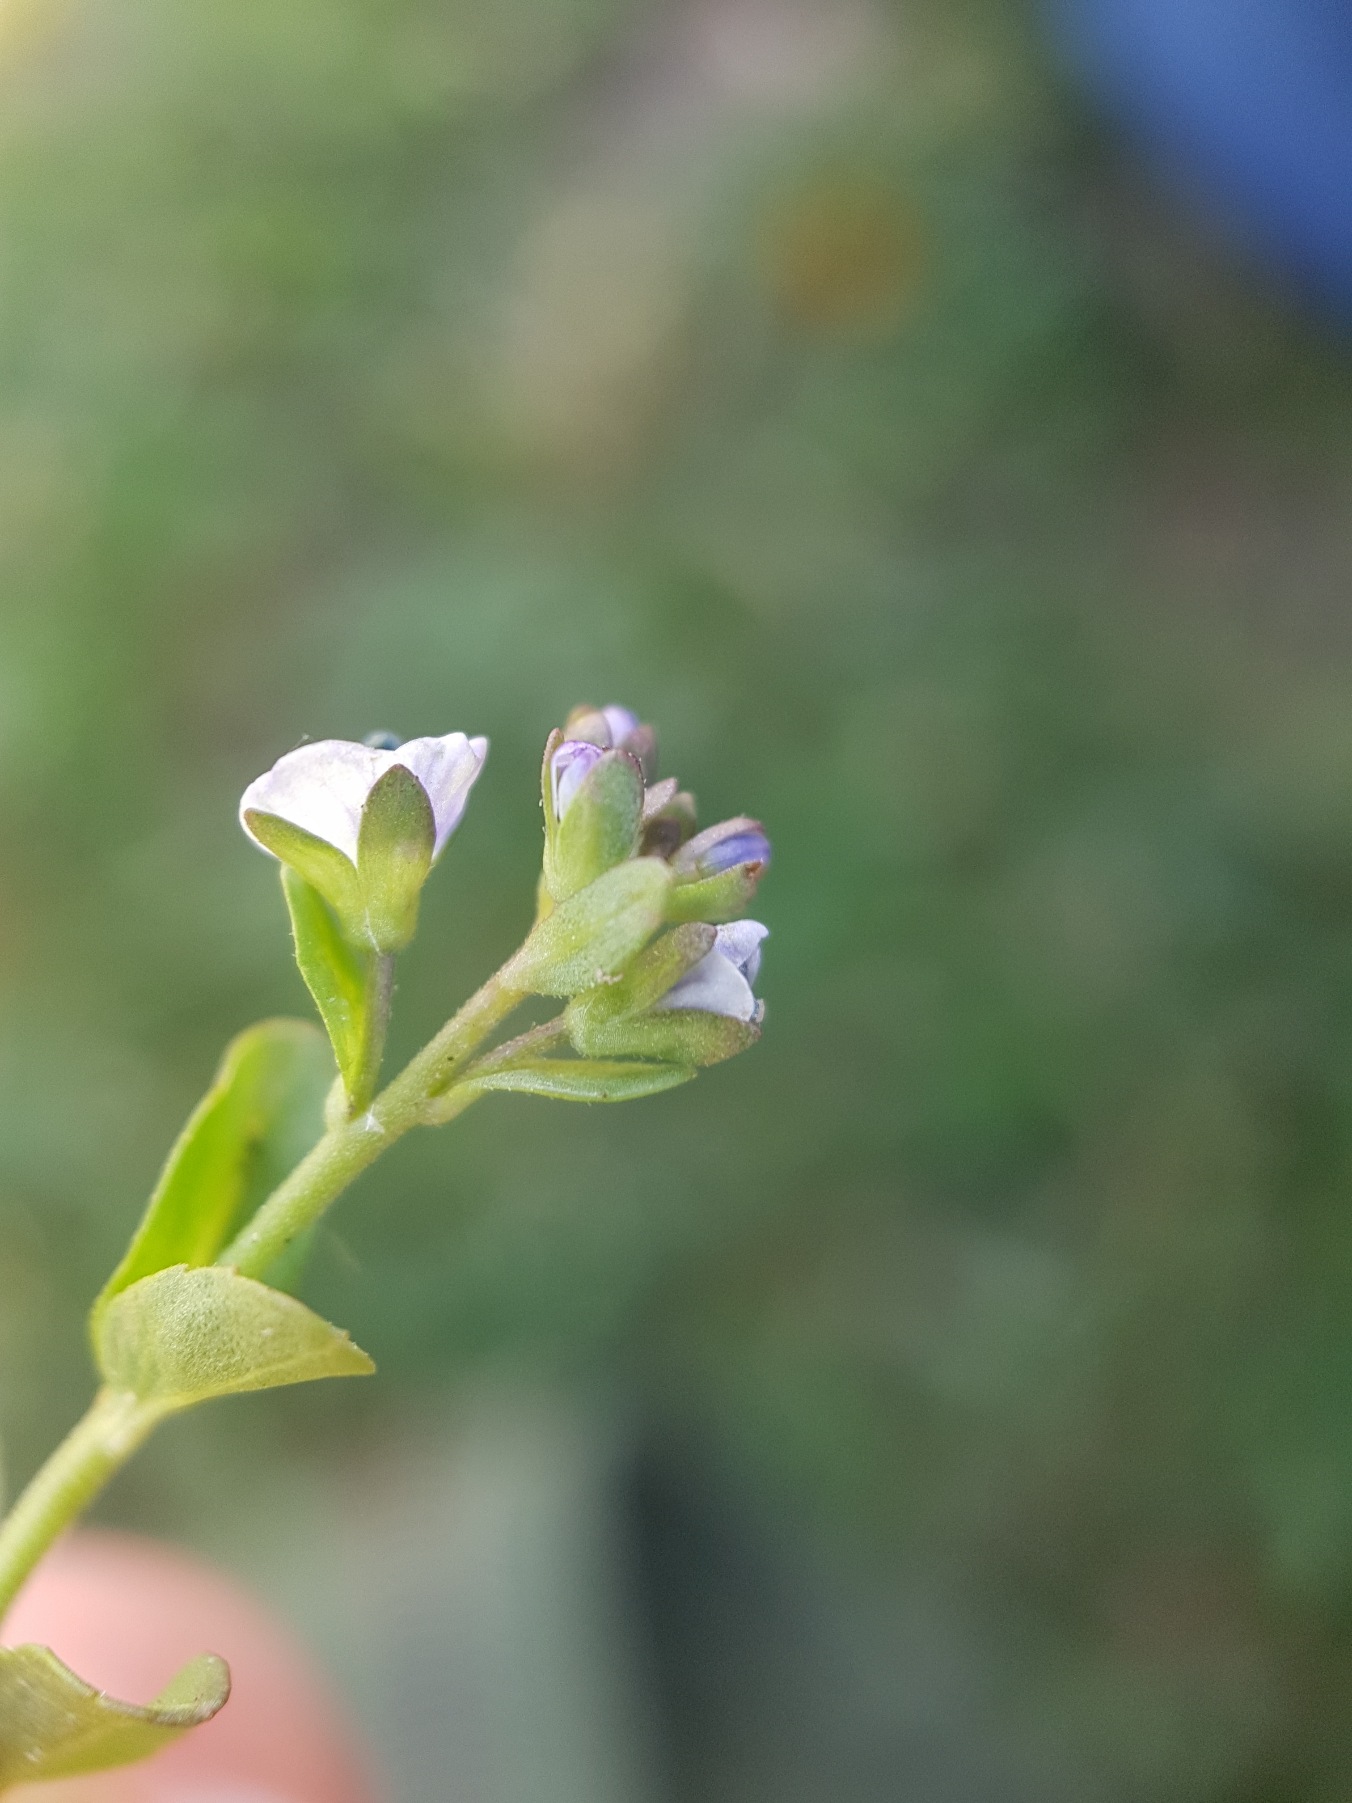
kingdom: Plantae
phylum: Tracheophyta
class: Magnoliopsida
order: Lamiales
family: Plantaginaceae
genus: Veronica
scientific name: Veronica serpyllifolia
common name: Glat ærenpris
